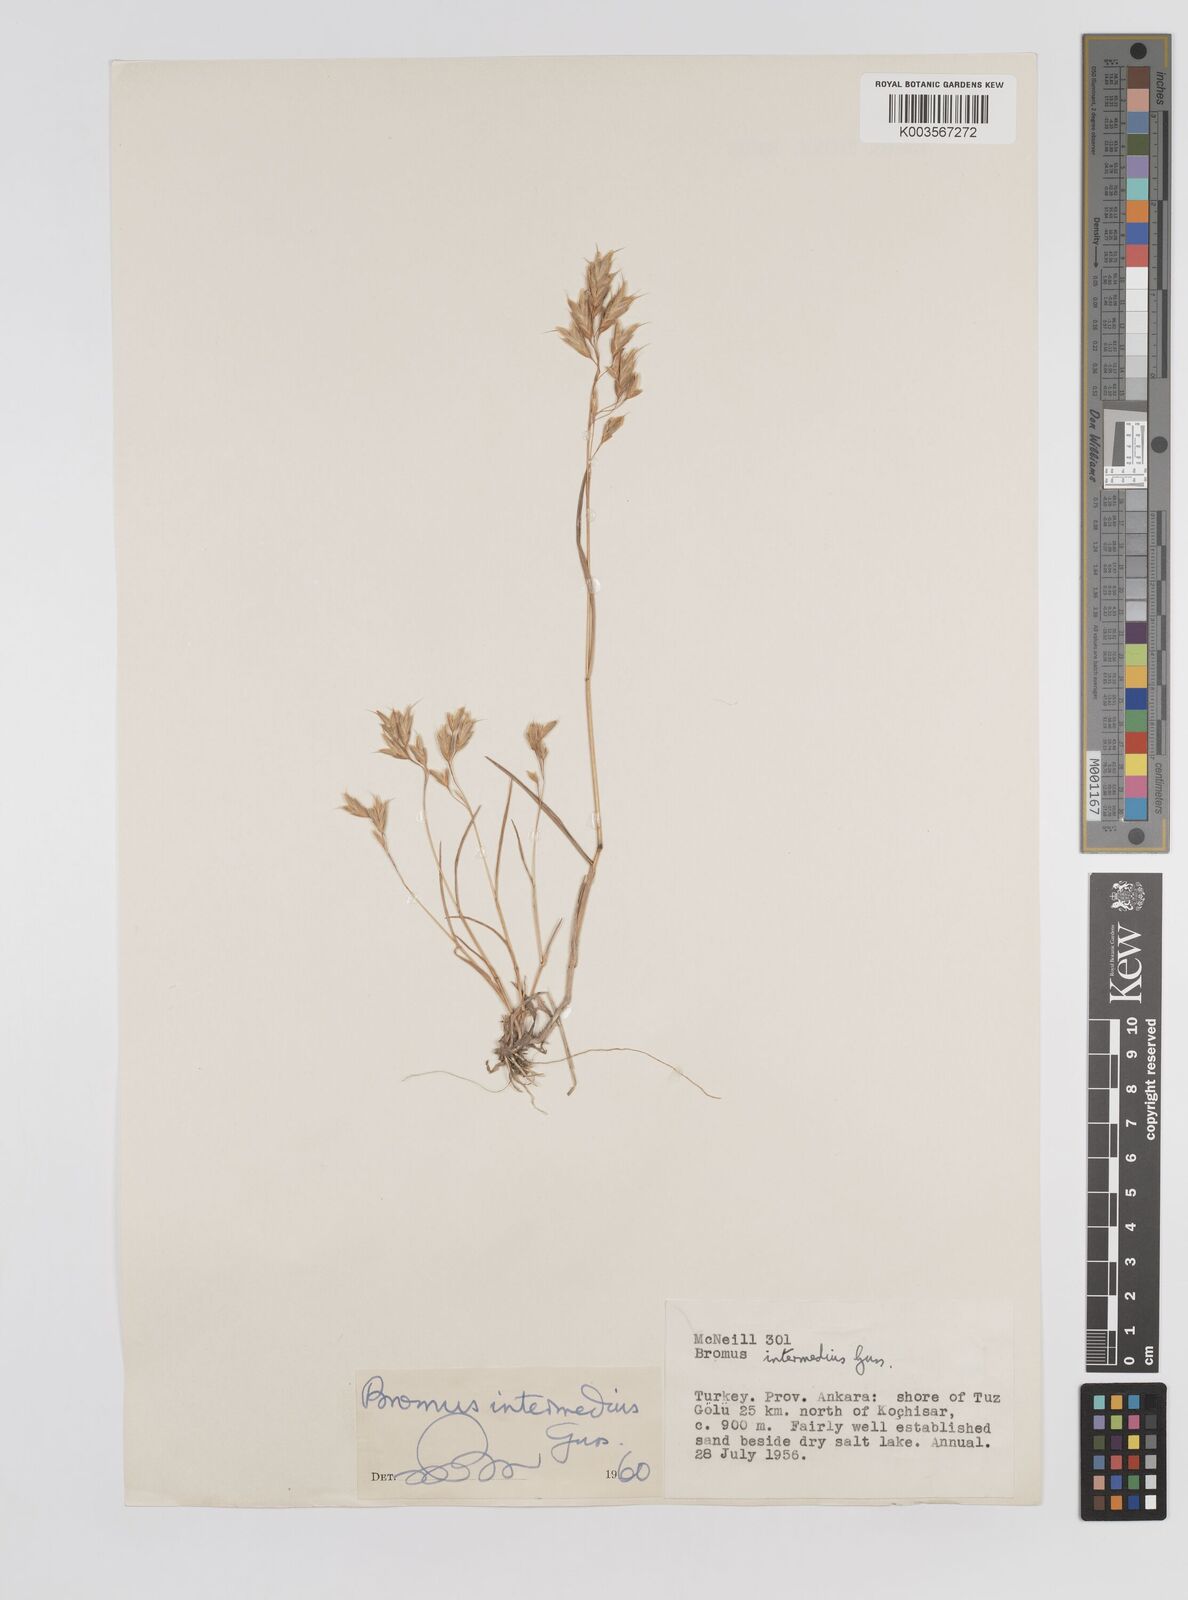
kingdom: Plantae
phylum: Tracheophyta
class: Liliopsida
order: Poales
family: Poaceae
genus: Bromus
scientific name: Bromus intermedius
